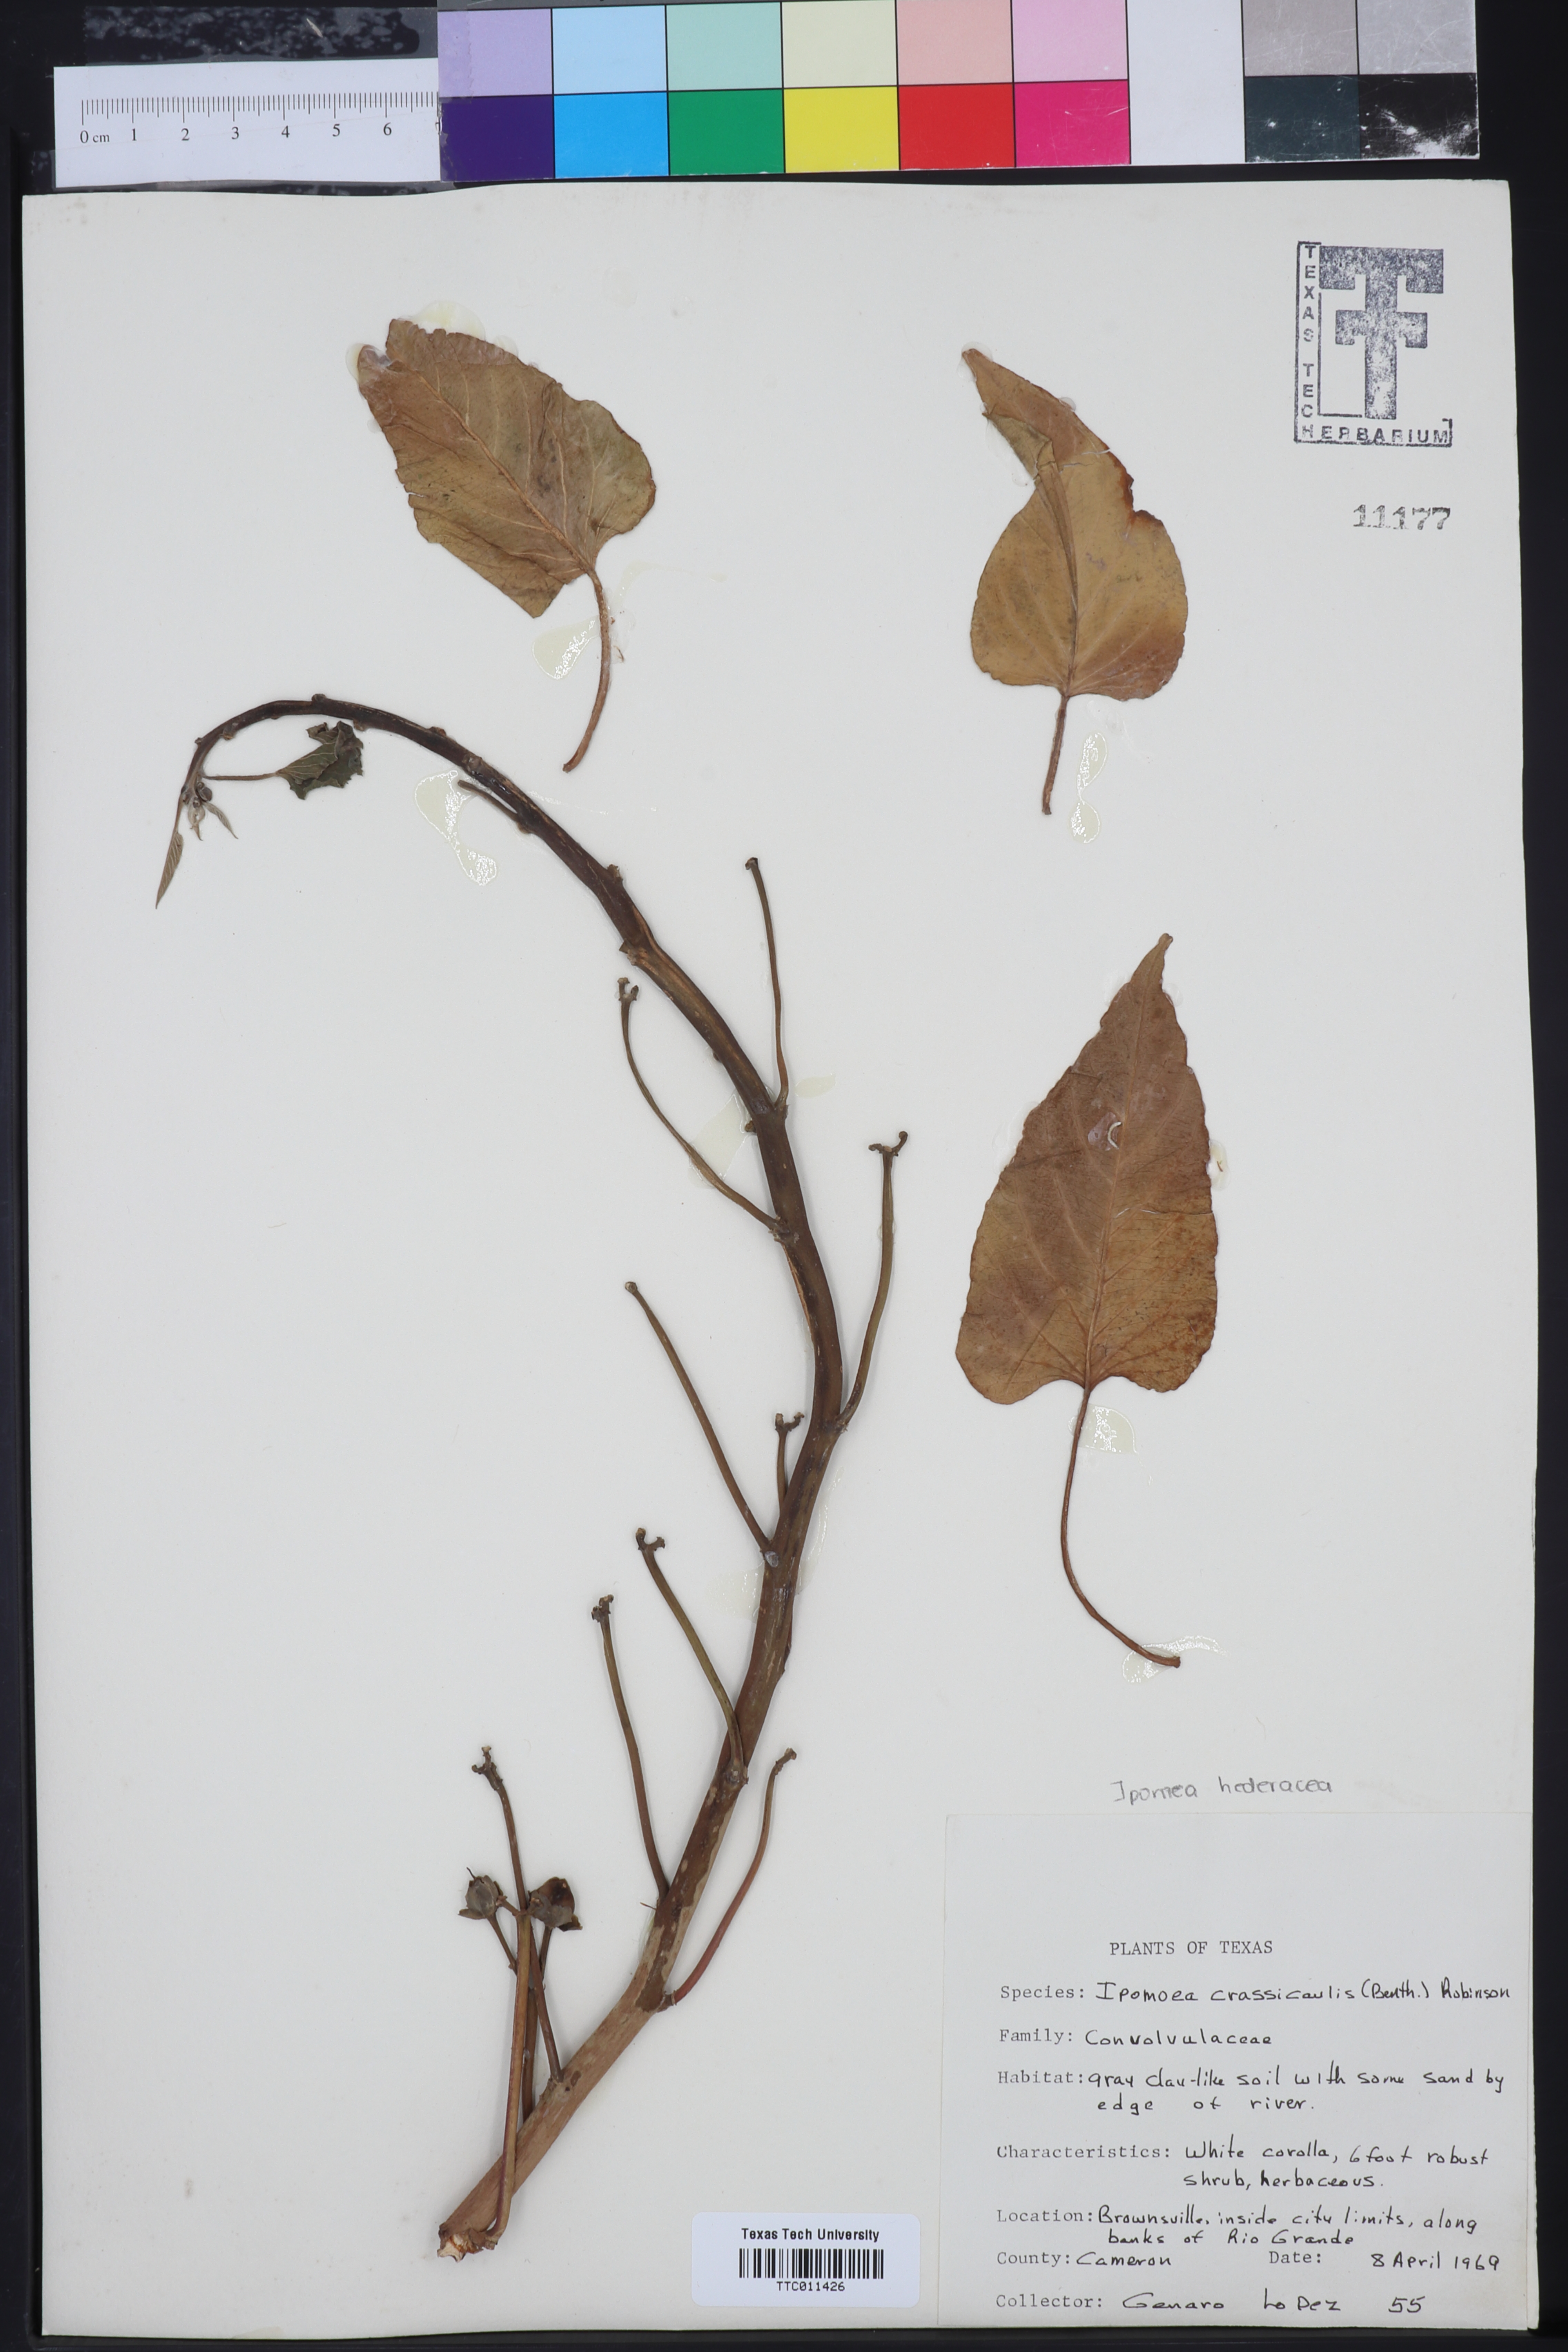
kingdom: Plantae
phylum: Tracheophyta
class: Magnoliopsida
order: Solanales
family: Convolvulaceae
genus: Ipomoea
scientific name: Ipomoea carnea
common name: Morning-glory
